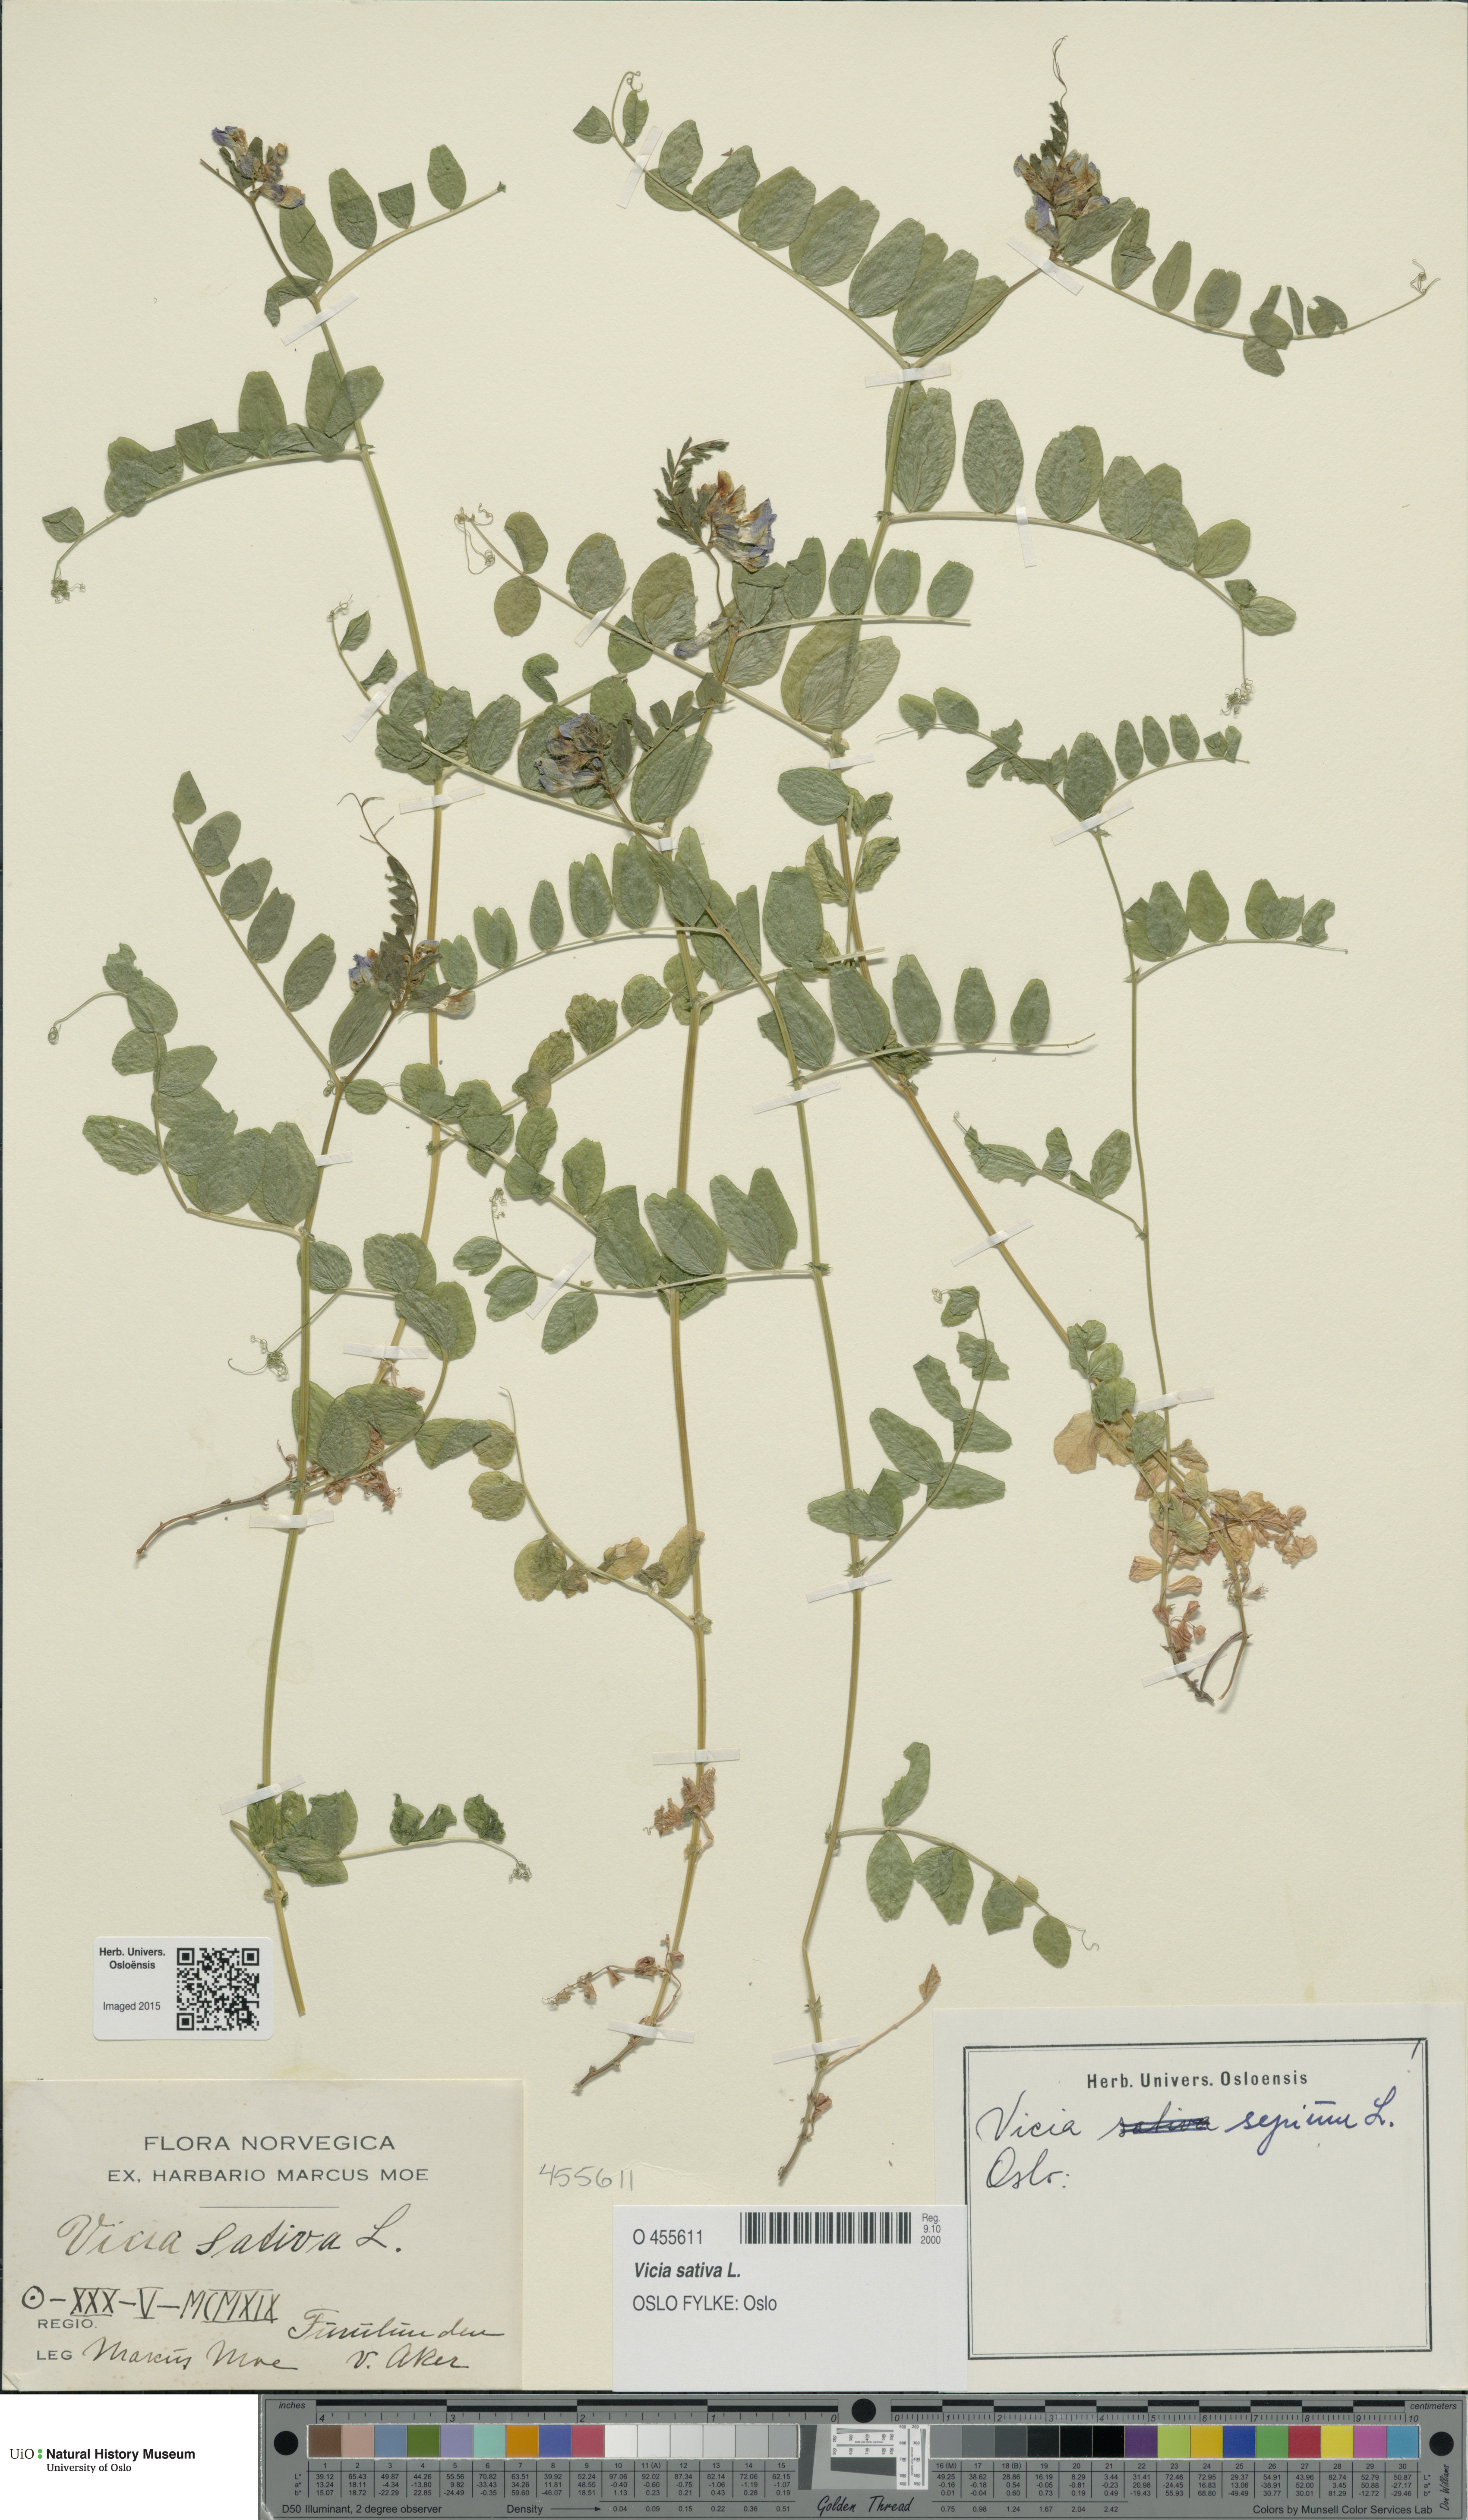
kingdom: Plantae
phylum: Tracheophyta
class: Magnoliopsida
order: Fabales
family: Fabaceae
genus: Vicia
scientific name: Vicia sativa
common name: Garden vetch
